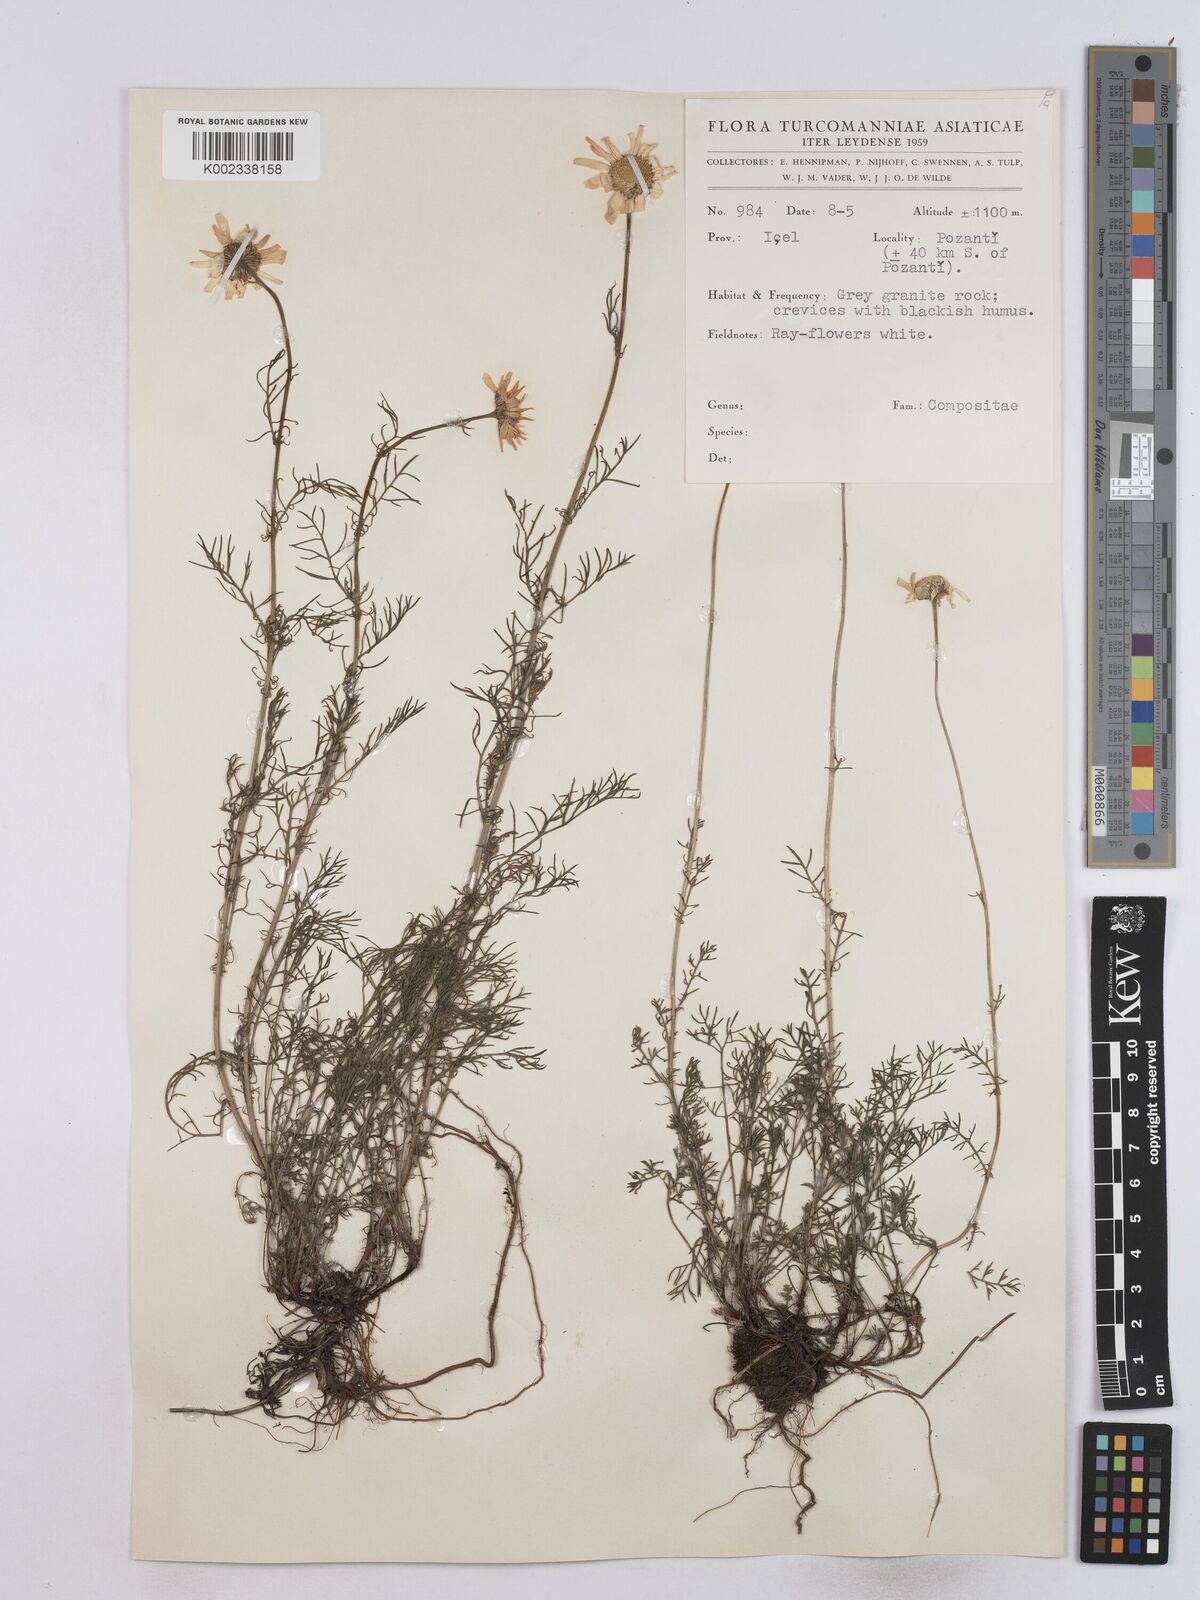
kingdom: Plantae
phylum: Tracheophyta
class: Magnoliopsida
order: Asterales
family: Asteraceae
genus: Matricaria
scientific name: Matricaria
